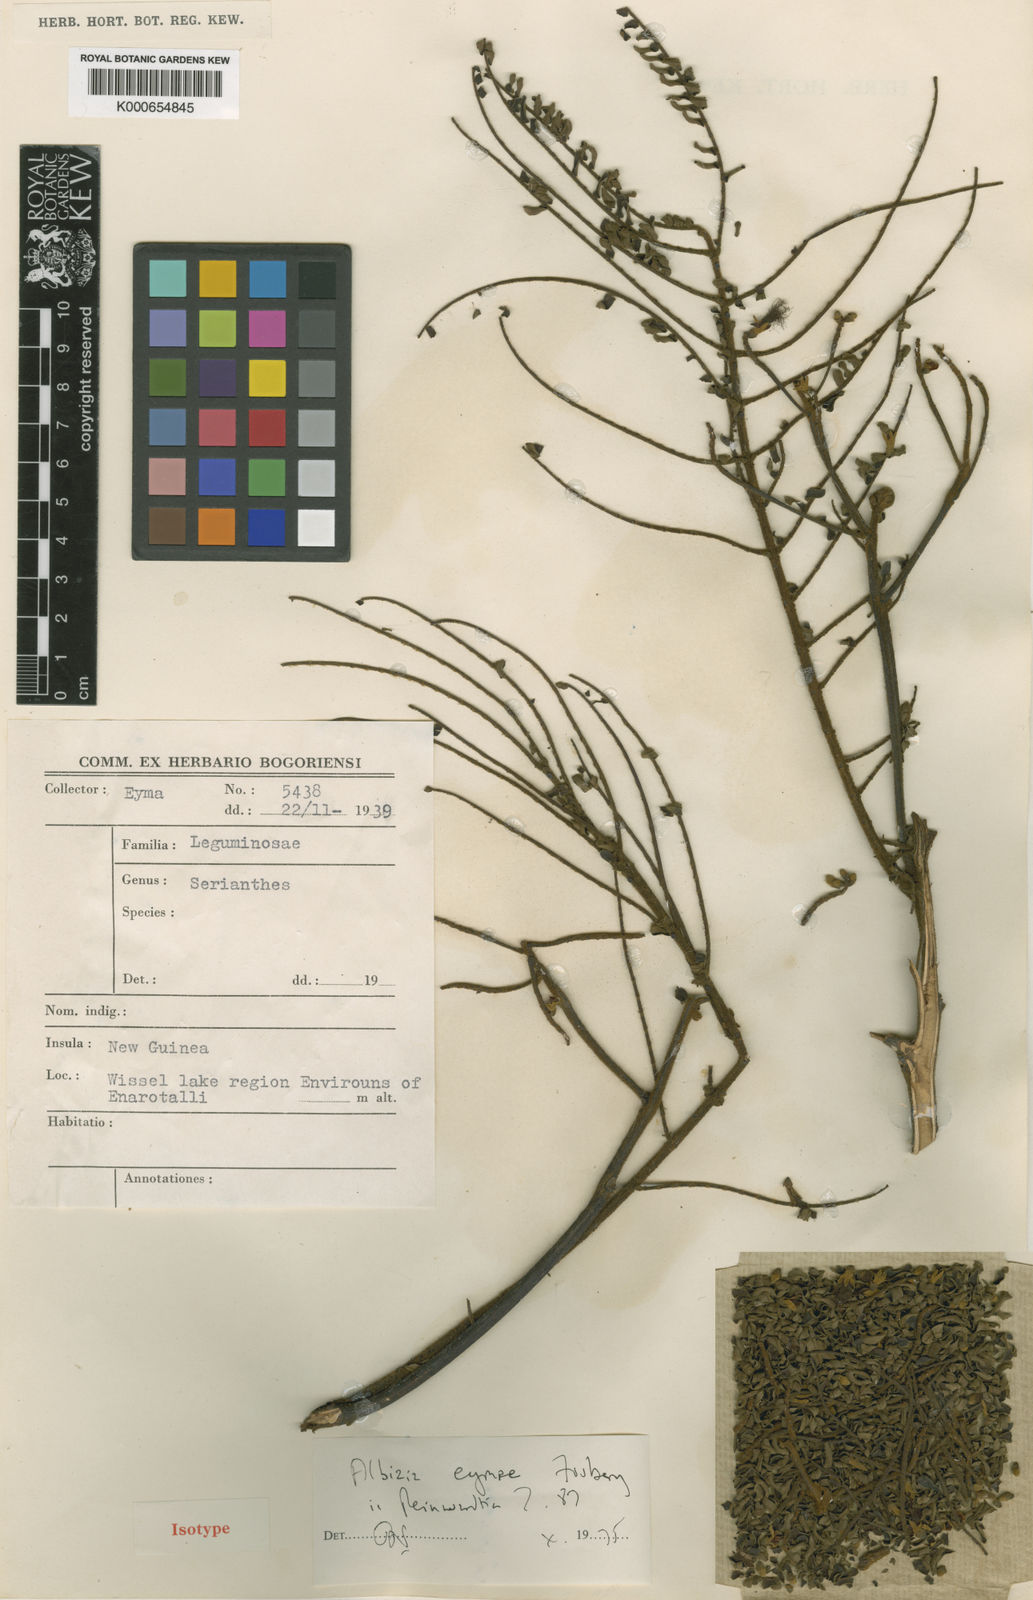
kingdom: Plantae
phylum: Tracheophyta
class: Magnoliopsida
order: Fabales
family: Fabaceae
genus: Falcataria
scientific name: Falcataria falcata
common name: Moluccan albizia
